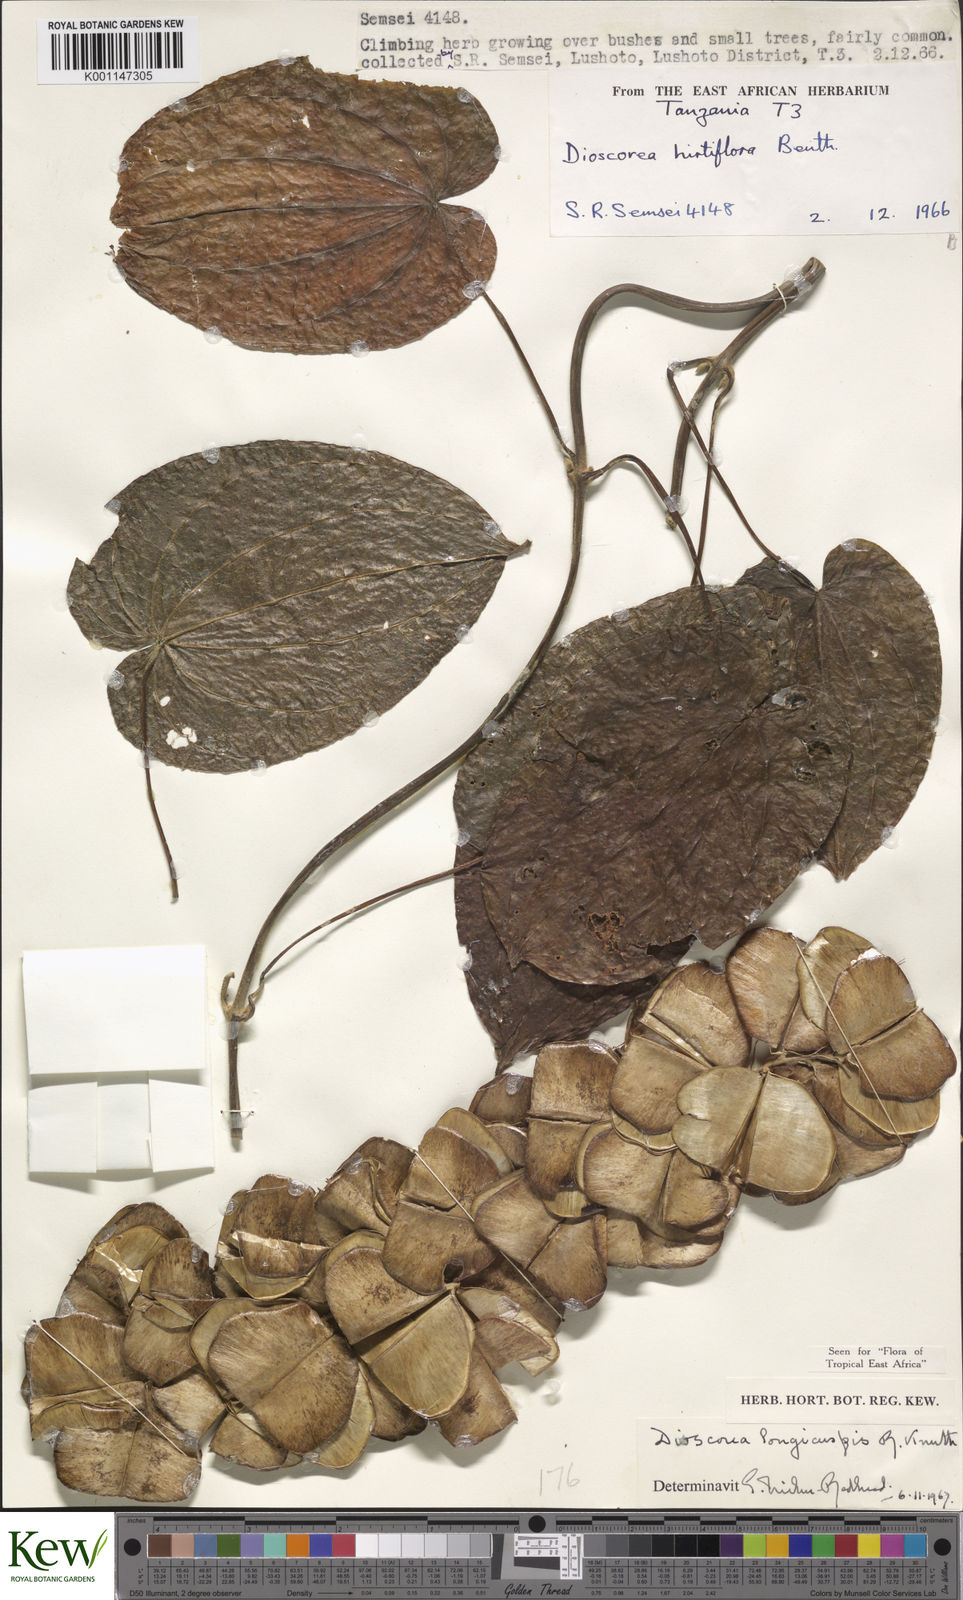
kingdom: Plantae
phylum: Tracheophyta
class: Liliopsida
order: Dioscoreales
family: Dioscoreaceae
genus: Dioscorea
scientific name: Dioscorea longicuspis
